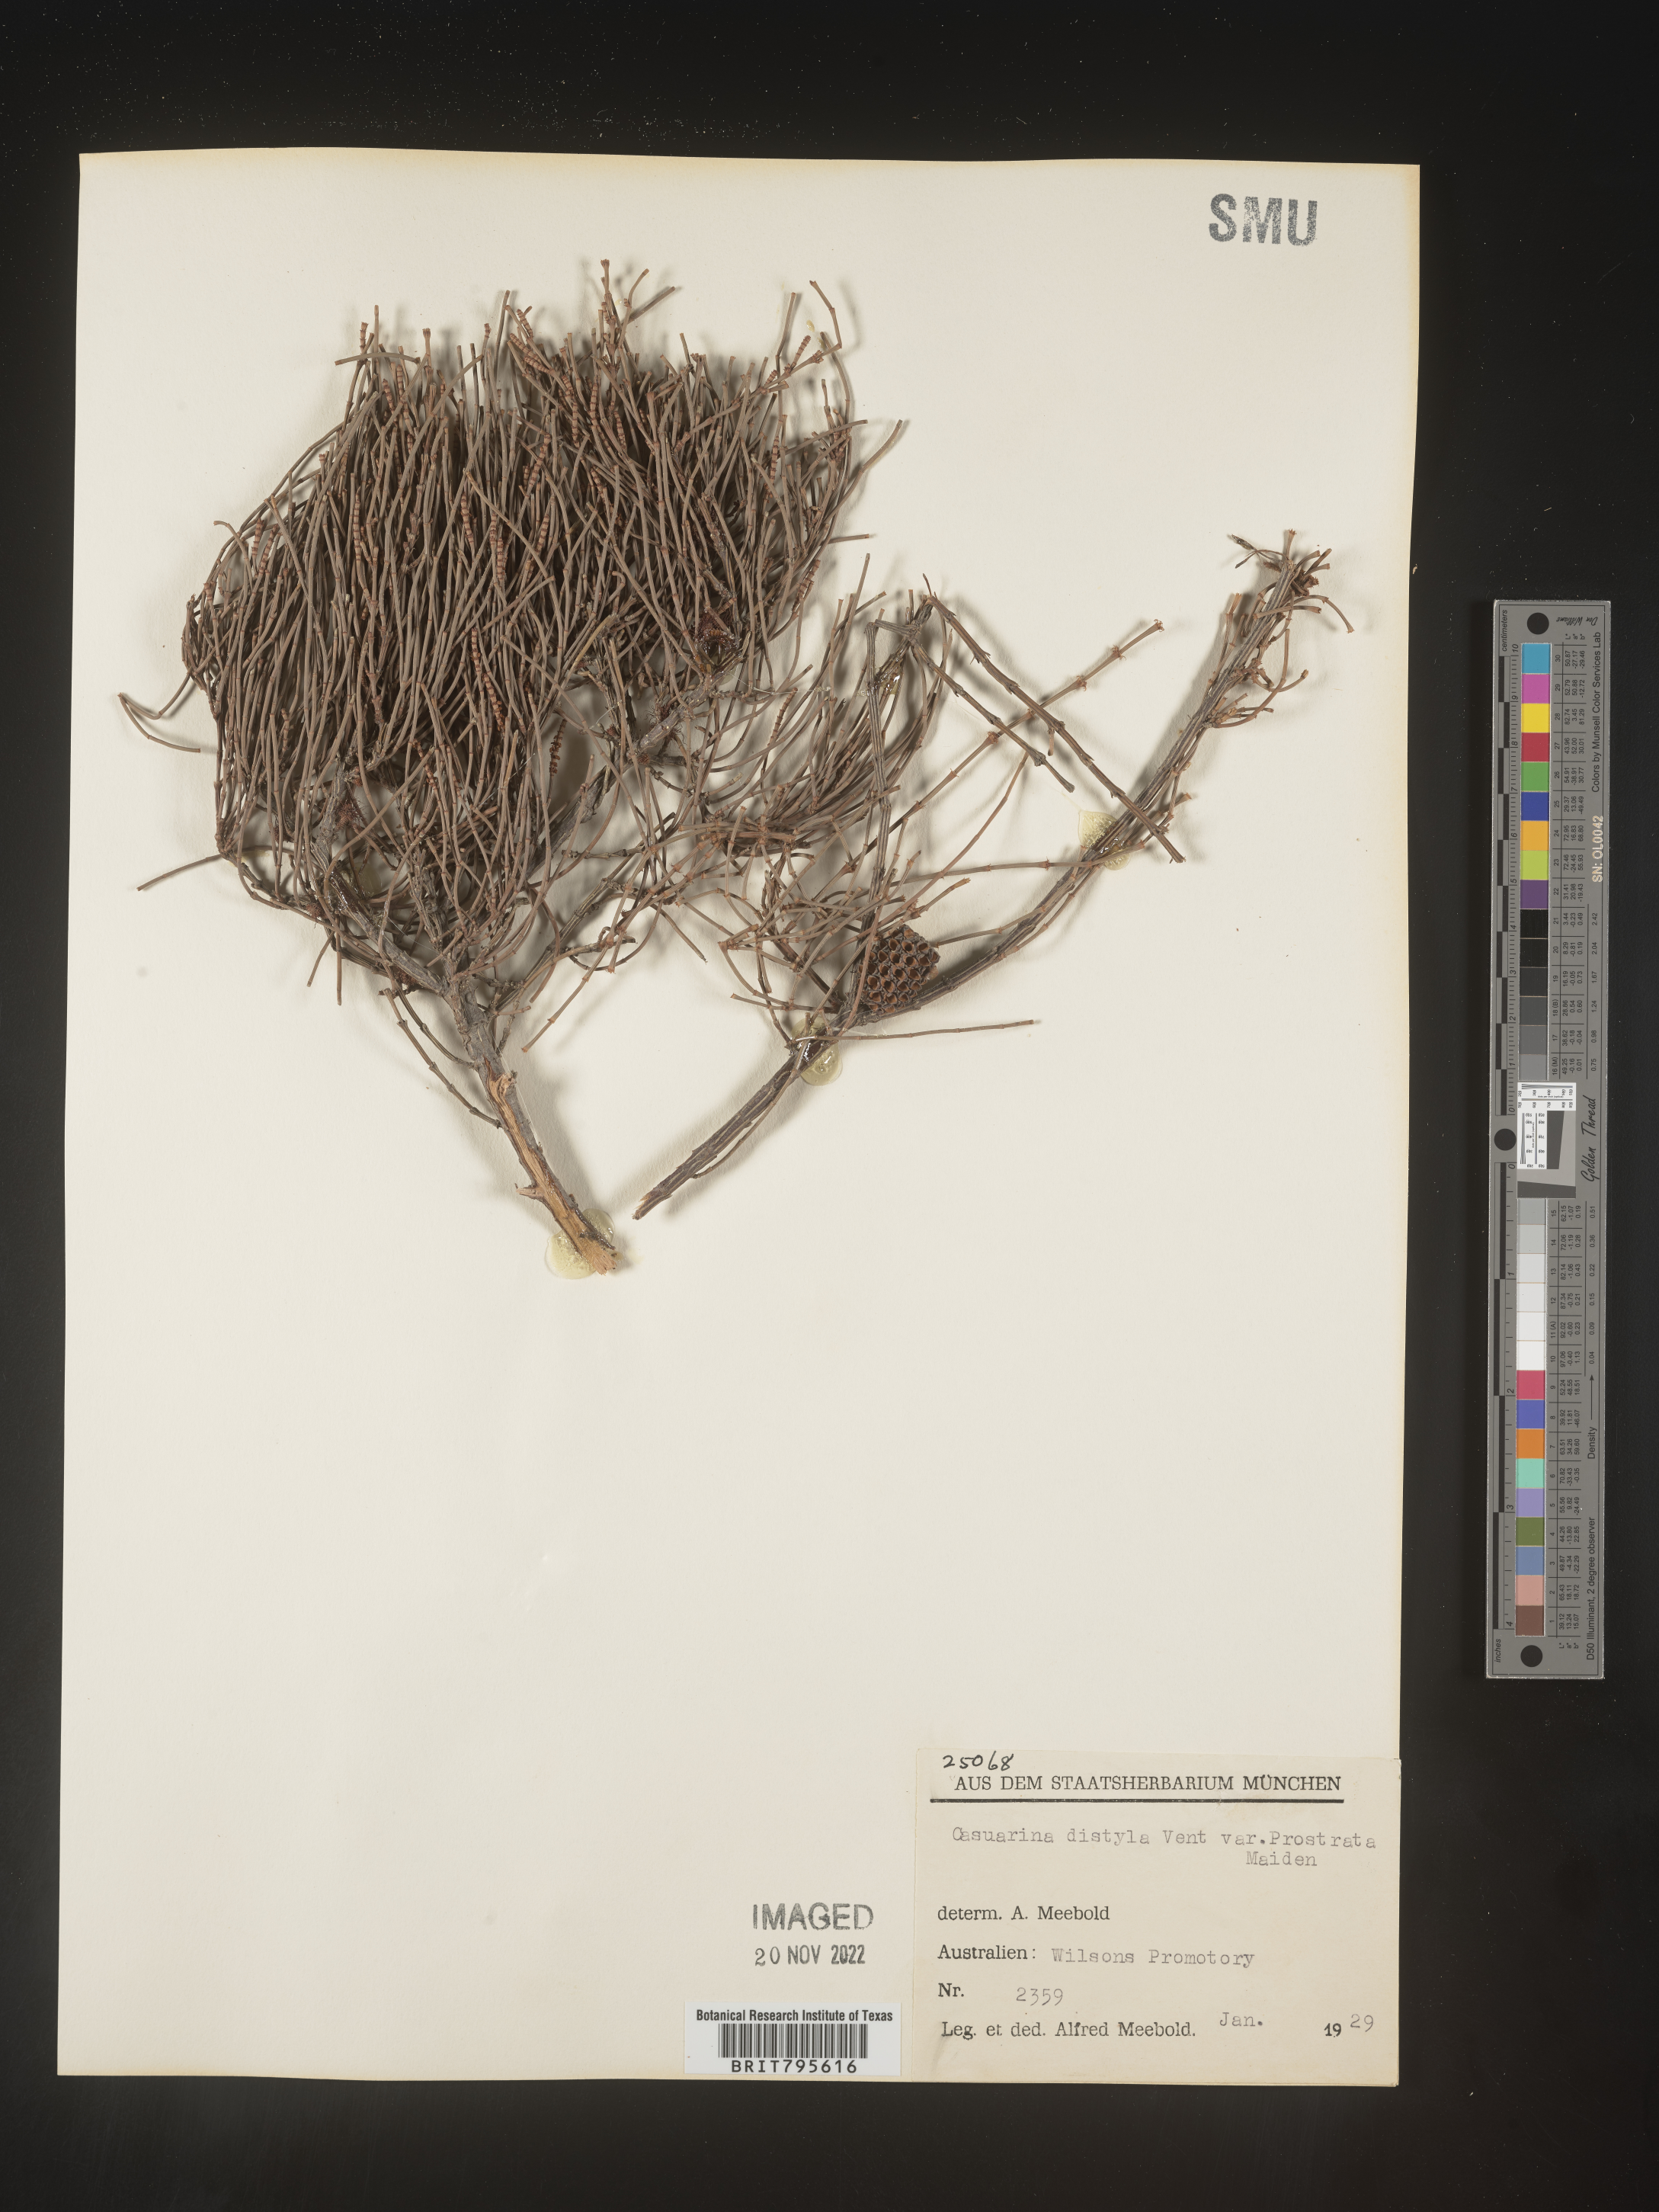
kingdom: Plantae
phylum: Tracheophyta
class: Magnoliopsida
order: Fagales
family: Casuarinaceae
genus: Casuarina
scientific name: Casuarina
